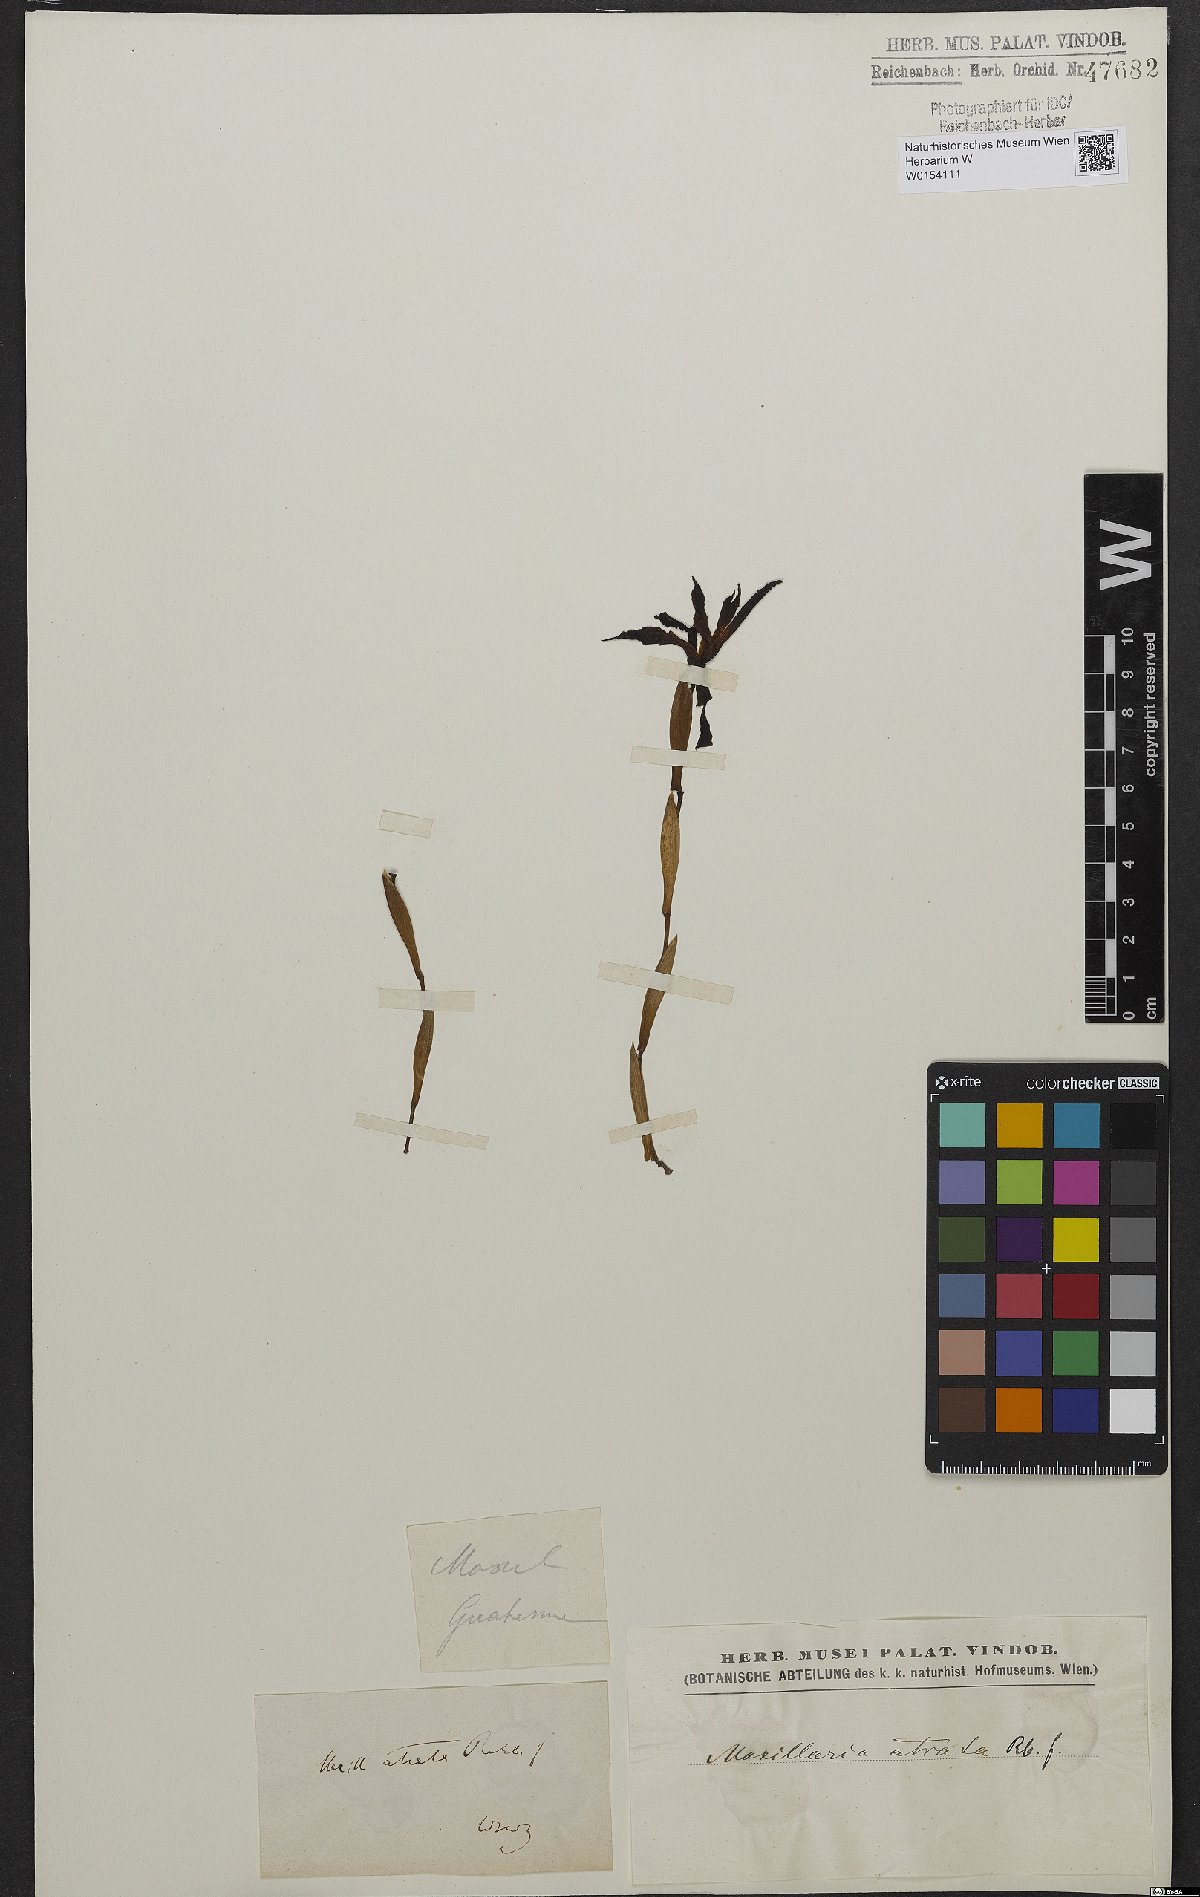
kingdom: Plantae
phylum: Tracheophyta
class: Liliopsida
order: Asparagales
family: Orchidaceae
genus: Maxillaria
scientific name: Maxillaria cucullata
